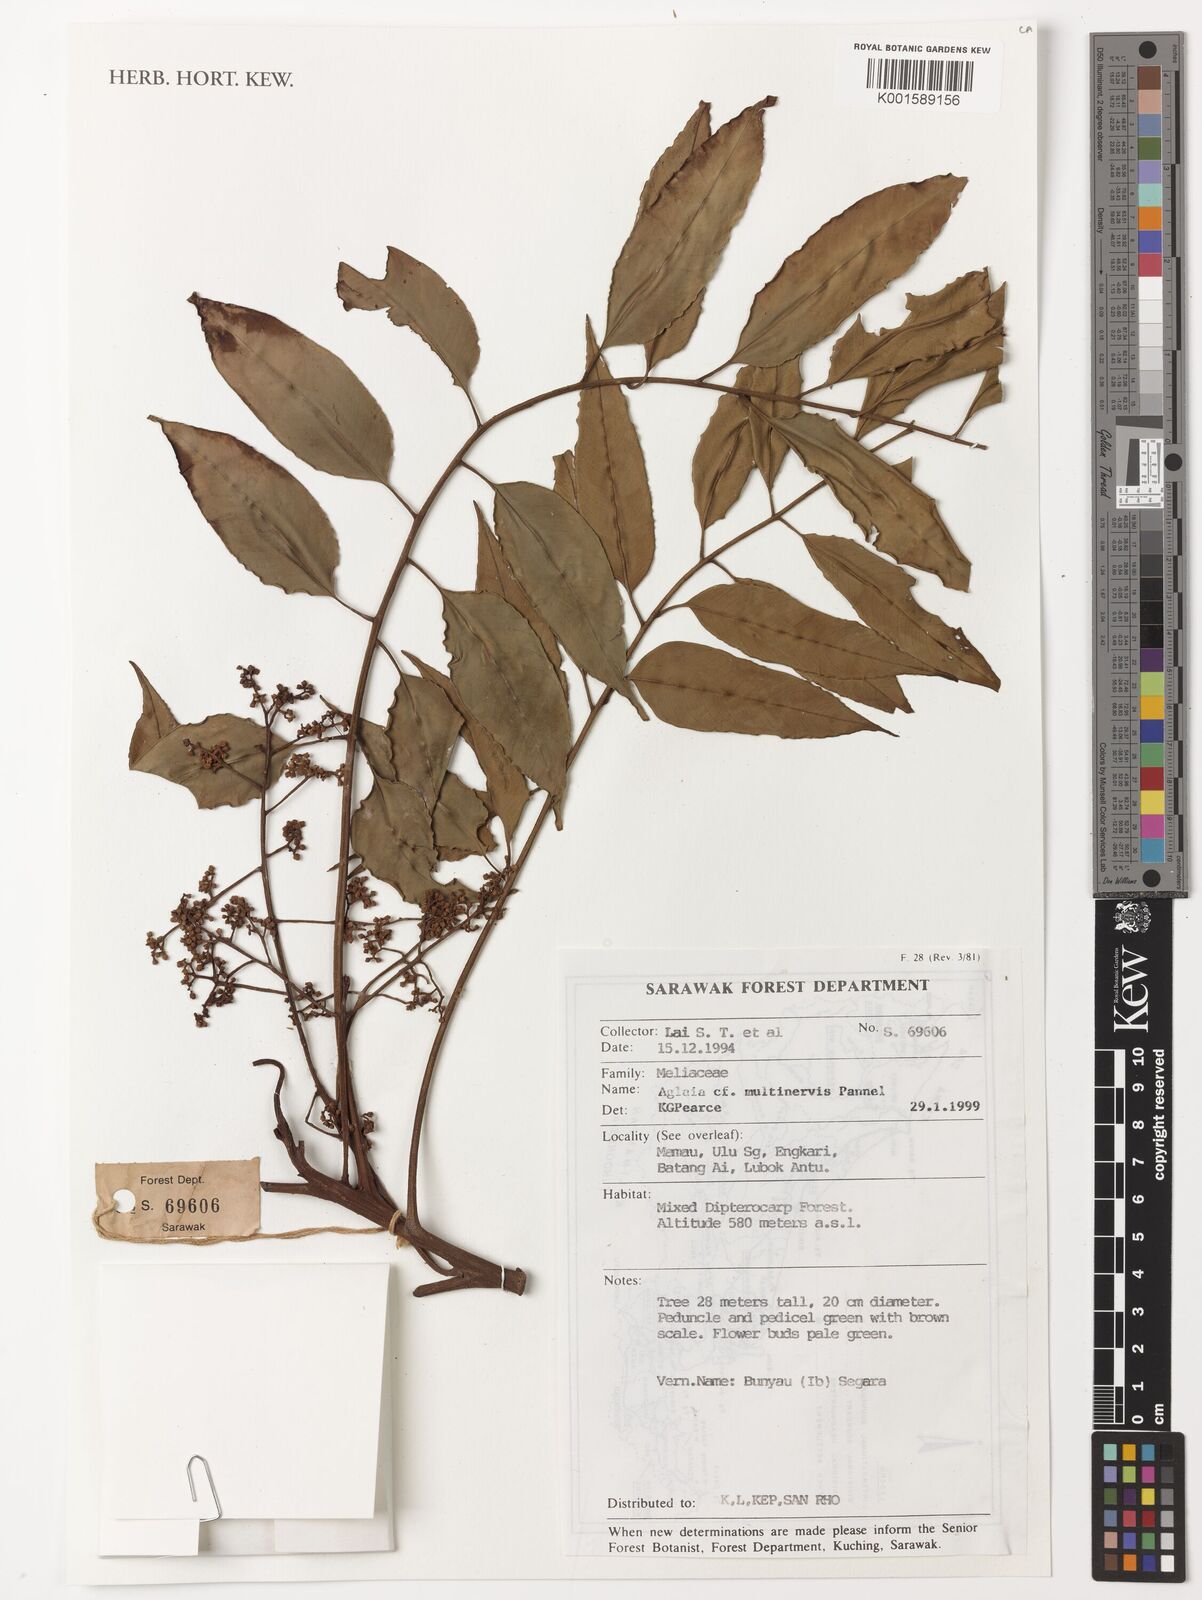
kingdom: Plantae
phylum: Tracheophyta
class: Magnoliopsida
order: Sapindales
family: Meliaceae
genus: Aglaia
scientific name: Aglaia multinervis
